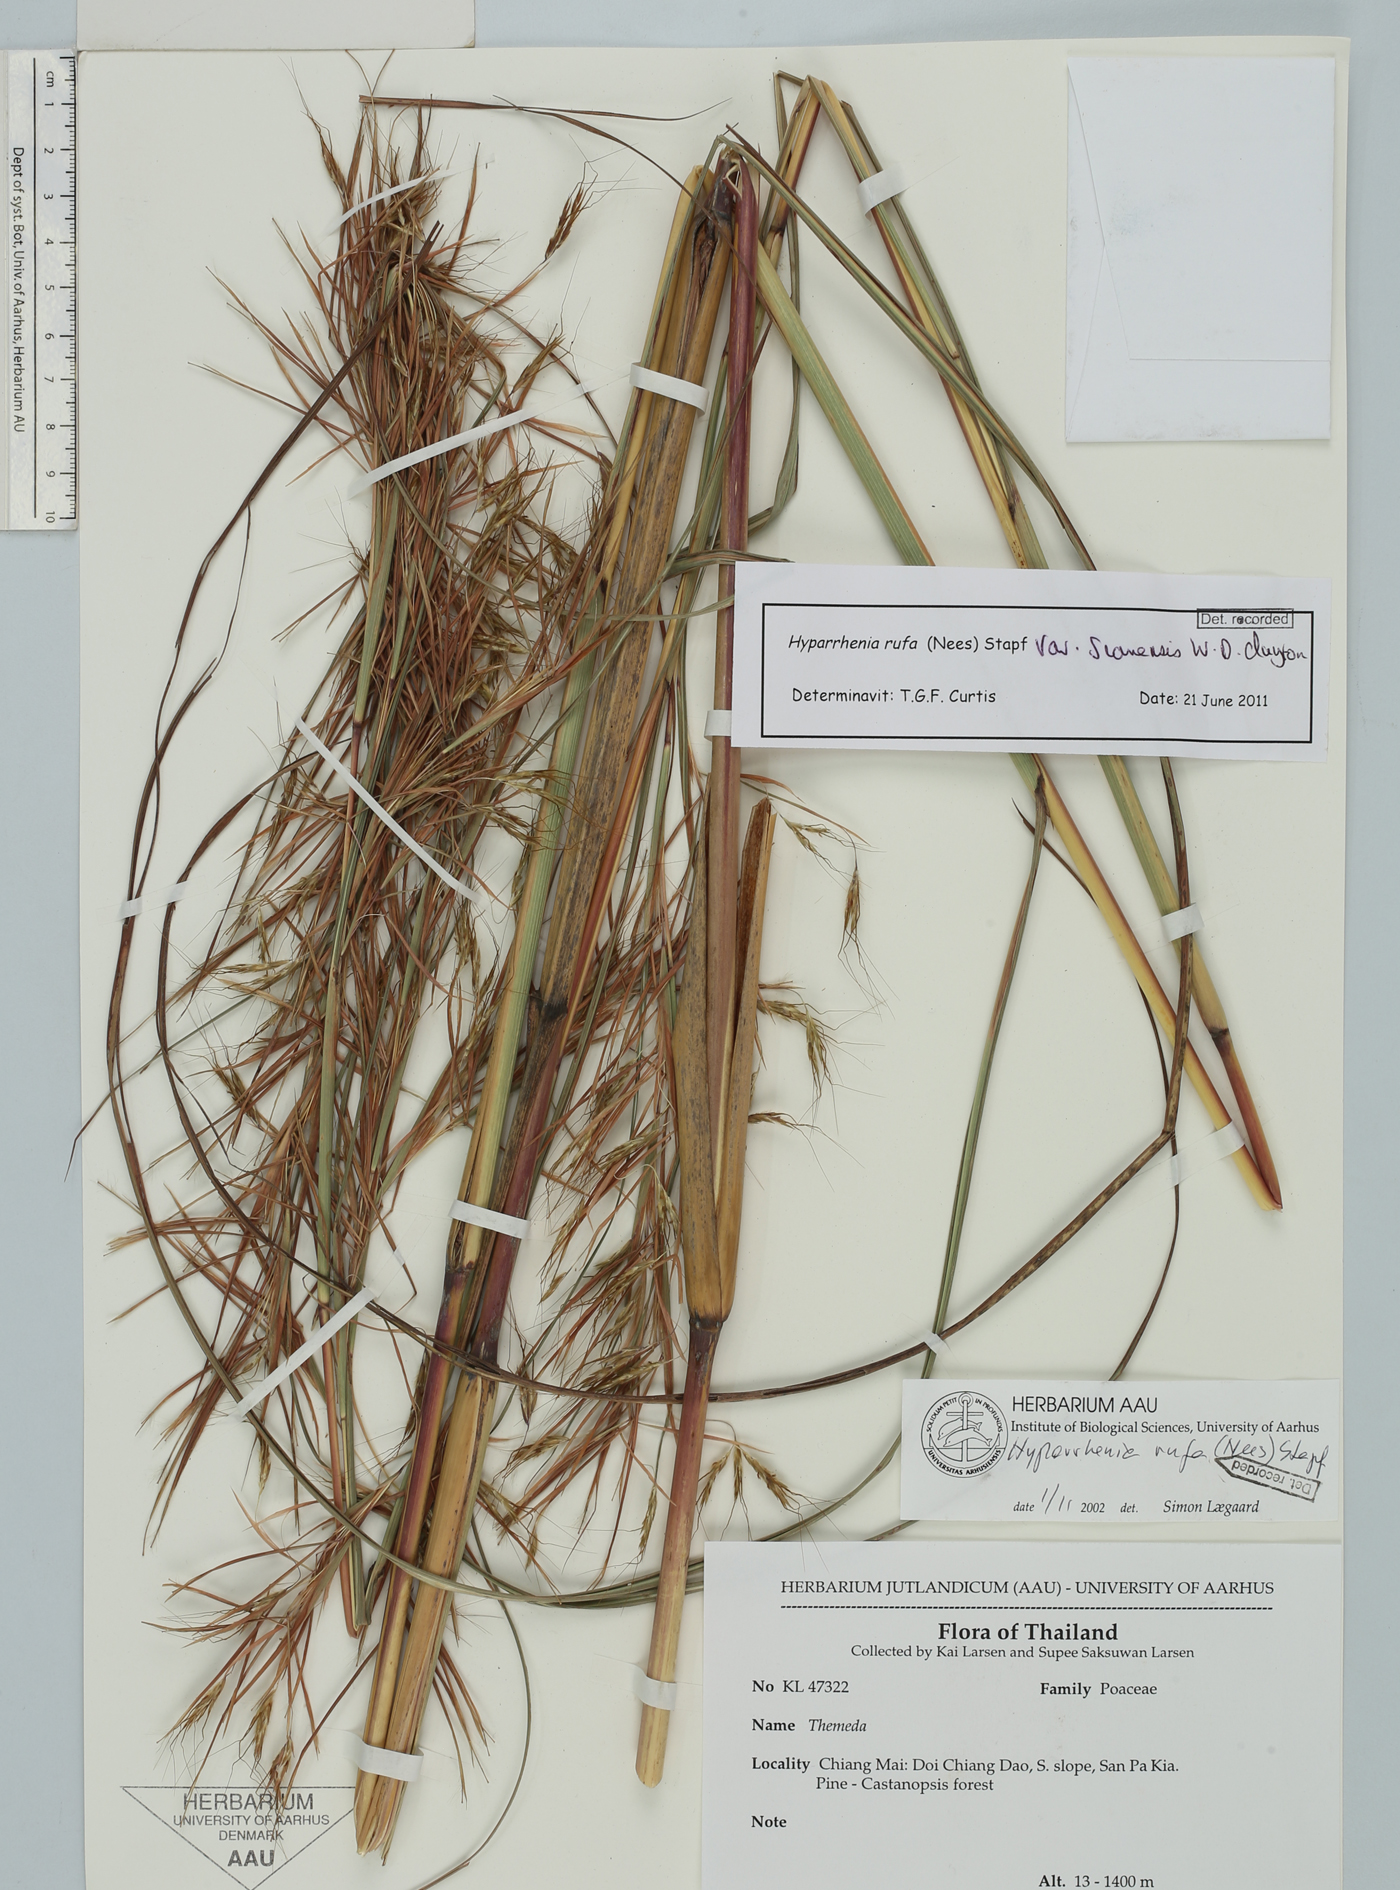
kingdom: Plantae
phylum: Tracheophyta
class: Liliopsida
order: Poales
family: Poaceae
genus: Hyparrhenia
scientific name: Hyparrhenia rufa
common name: Jaraguagrass
